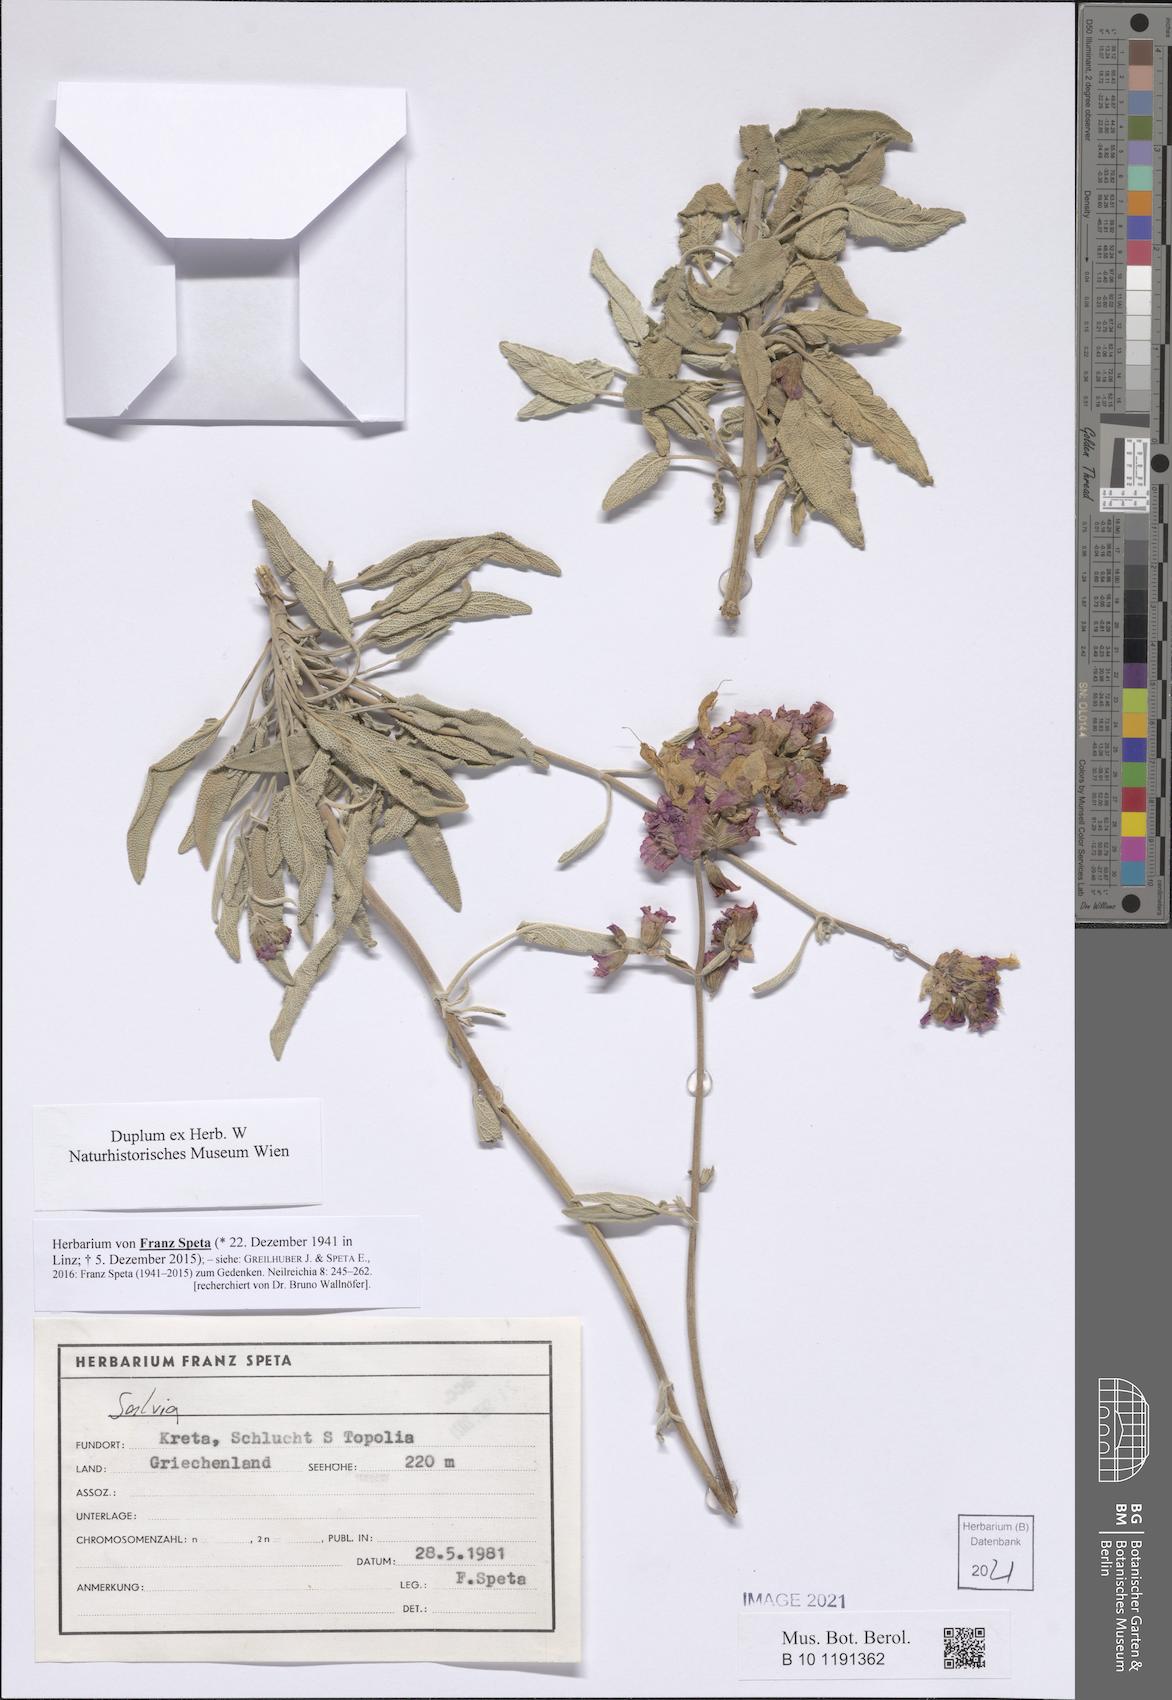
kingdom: Plantae
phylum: Tracheophyta
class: Magnoliopsida
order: Lamiales
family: Lamiaceae
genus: Salvia
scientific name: Salvia
